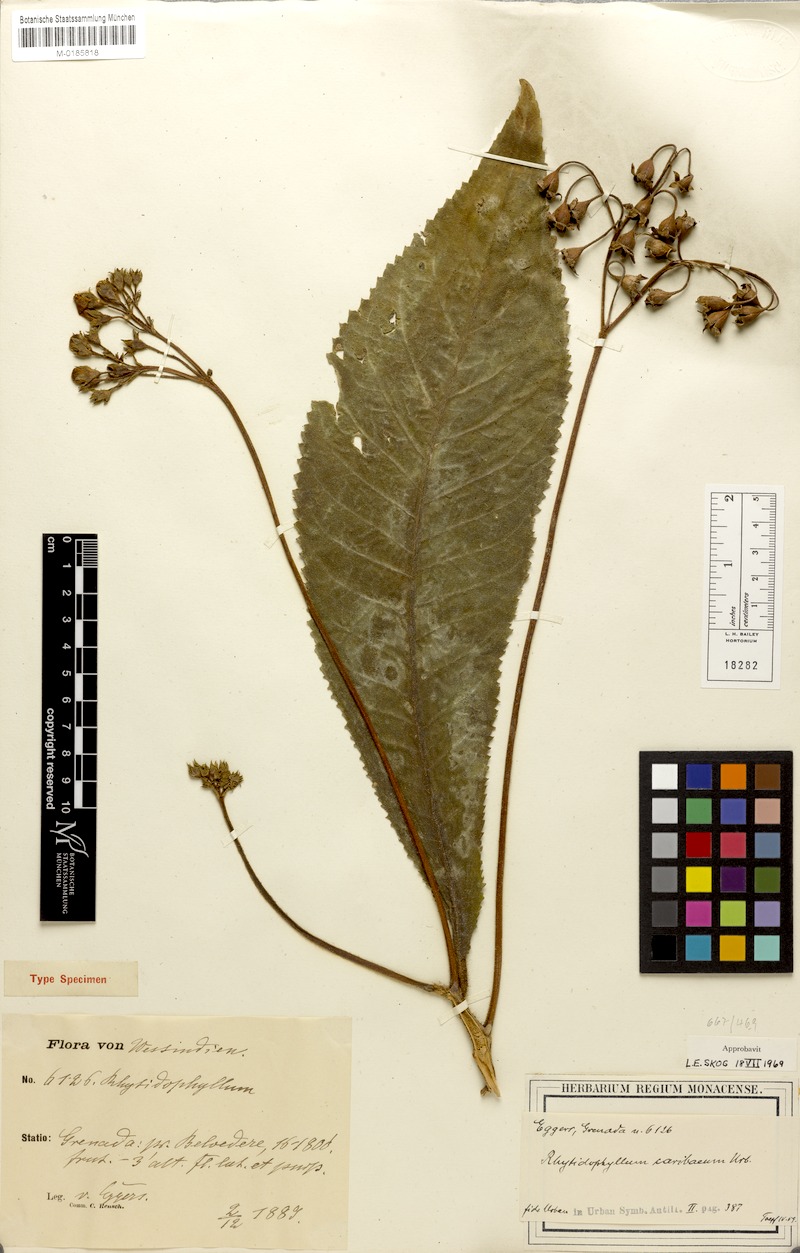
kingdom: Plantae
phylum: Tracheophyta
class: Magnoliopsida
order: Lamiales
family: Gesneriaceae
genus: Rhytidophyllum
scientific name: Rhytidophyllum caribaeum
